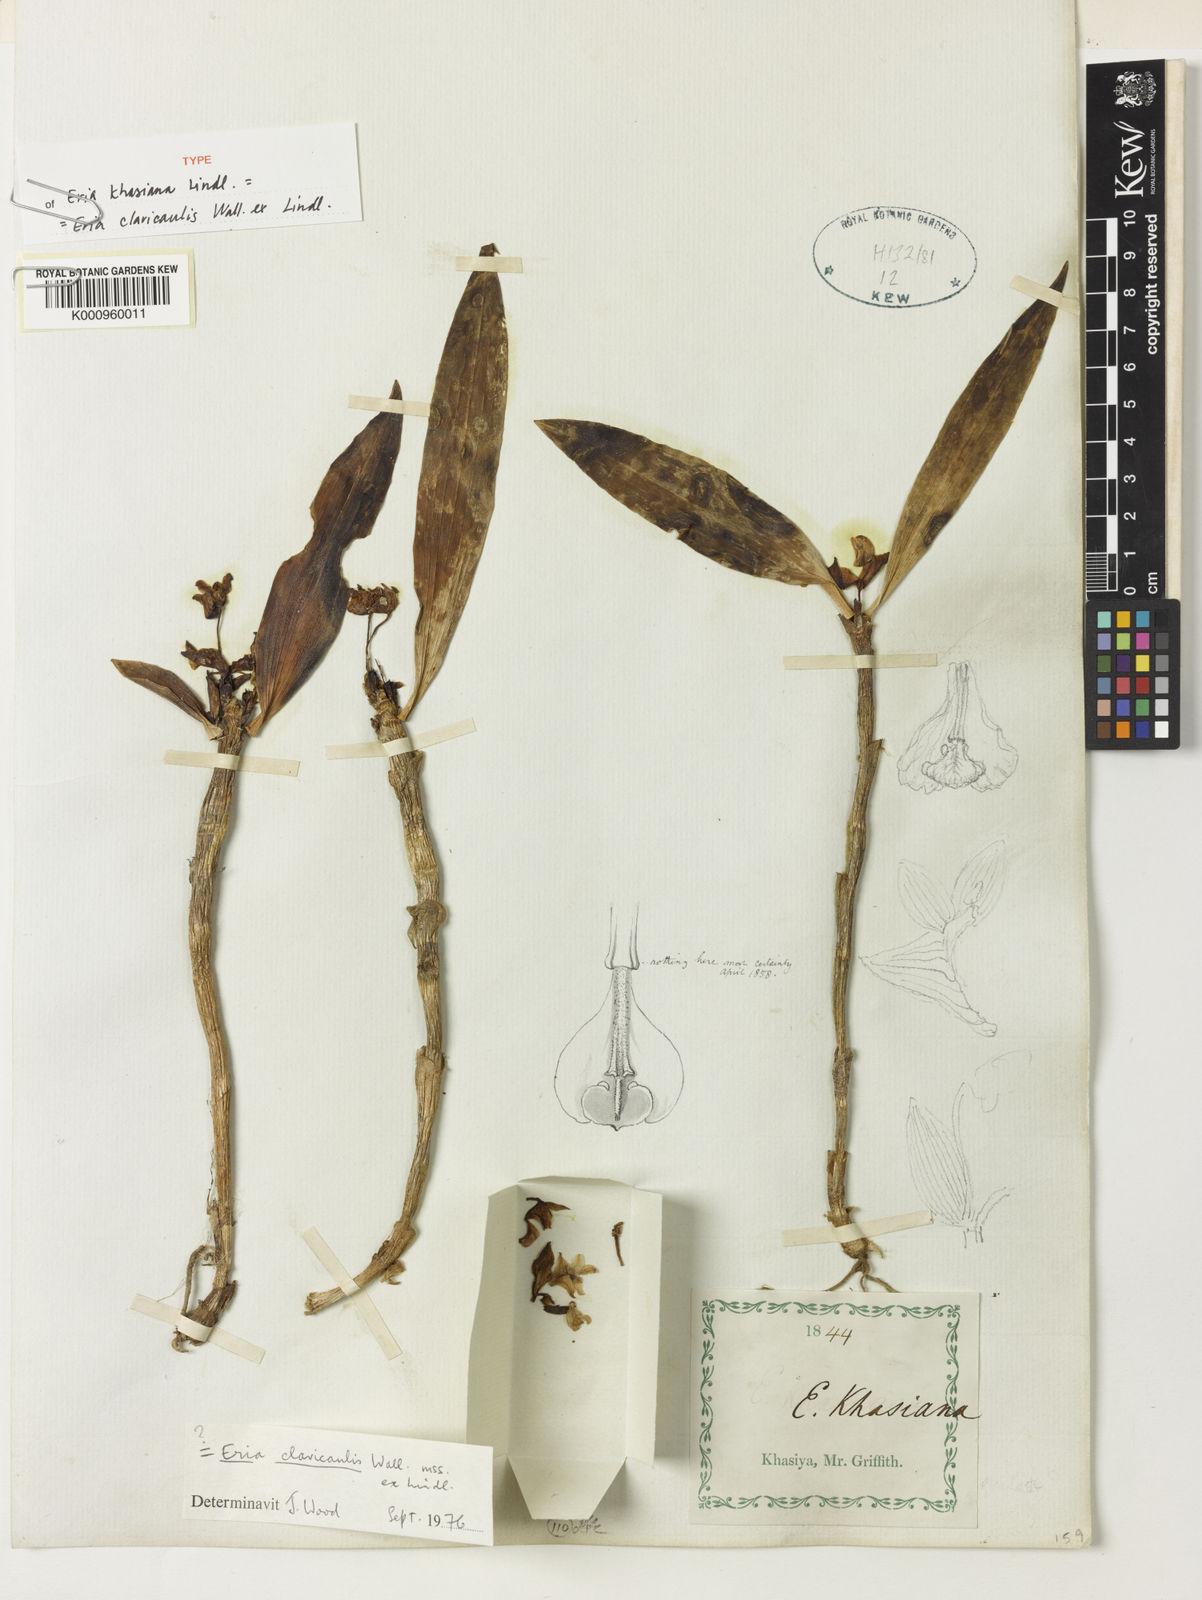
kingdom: Plantae
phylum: Tracheophyta
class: Liliopsida
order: Asparagales
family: Orchidaceae
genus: Cylindrolobus
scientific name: Cylindrolobus clavicaulis
